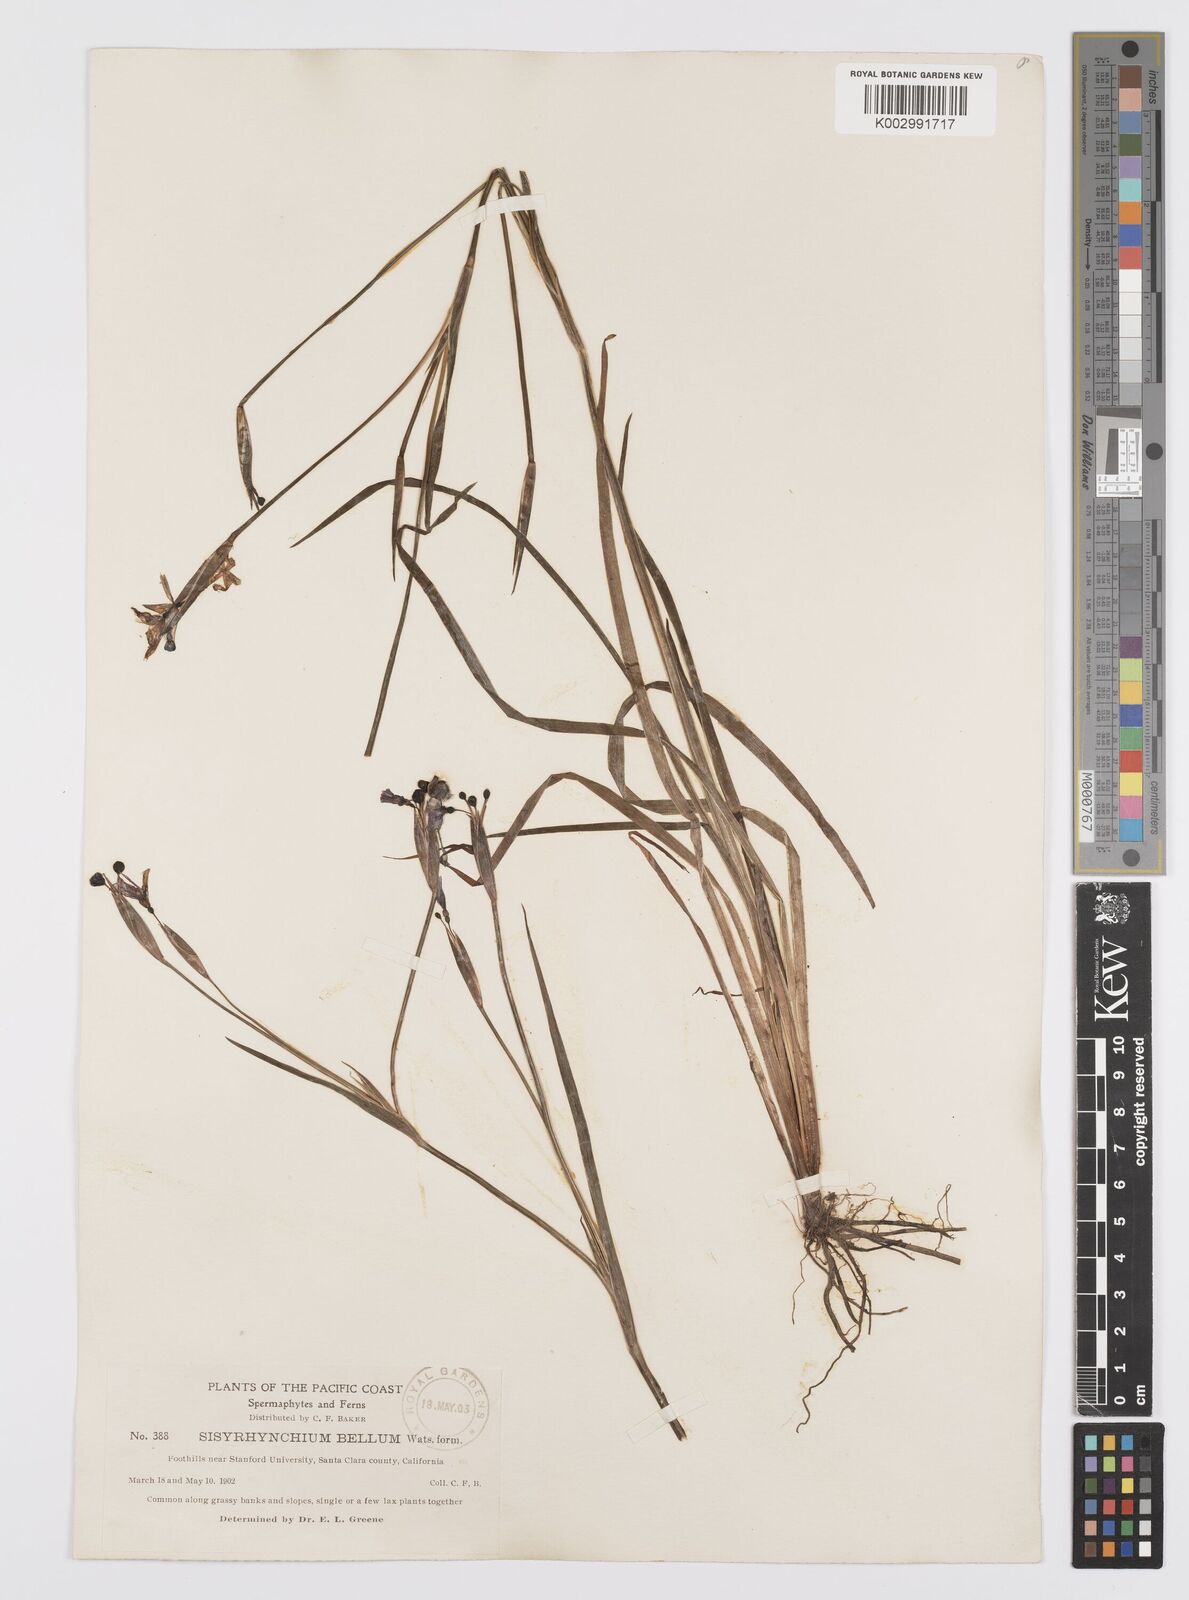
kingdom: Plantae
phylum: Tracheophyta
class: Liliopsida
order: Asparagales
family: Iridaceae
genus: Sisyrinchium
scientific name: Sisyrinchium bellum
